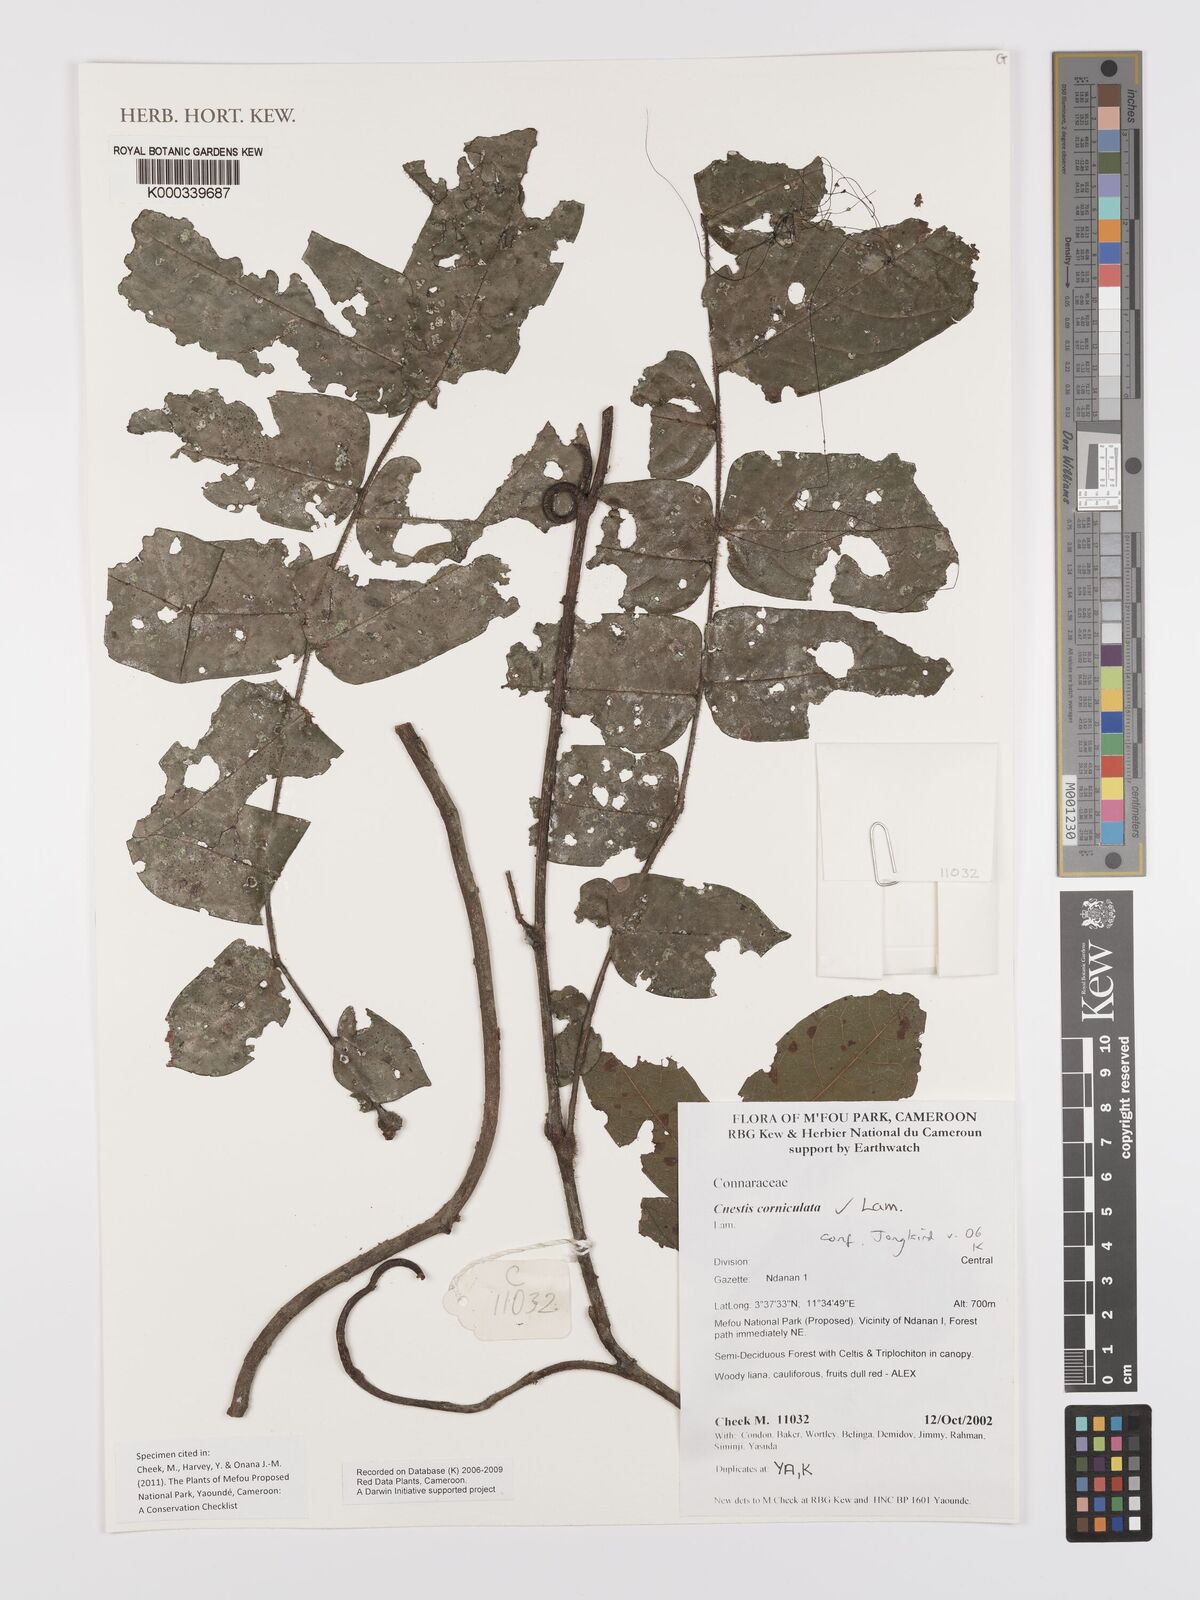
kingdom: Plantae
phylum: Tracheophyta
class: Magnoliopsida
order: Oxalidales
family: Connaraceae
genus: Cnestis
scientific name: Cnestis corniculata
